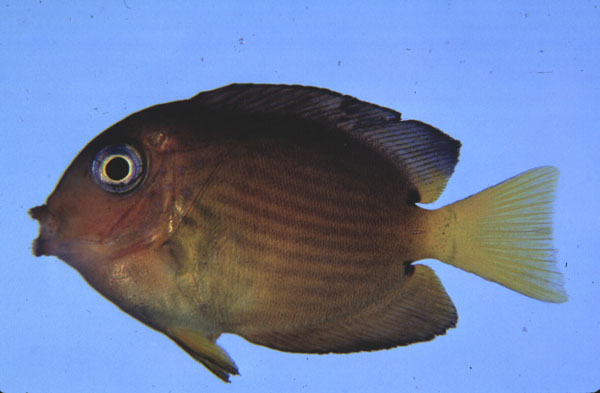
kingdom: Animalia
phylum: Chordata
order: Perciformes
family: Acanthuridae
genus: Ctenochaetus
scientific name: Ctenochaetus binotatus
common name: Two-spot bristletooth
